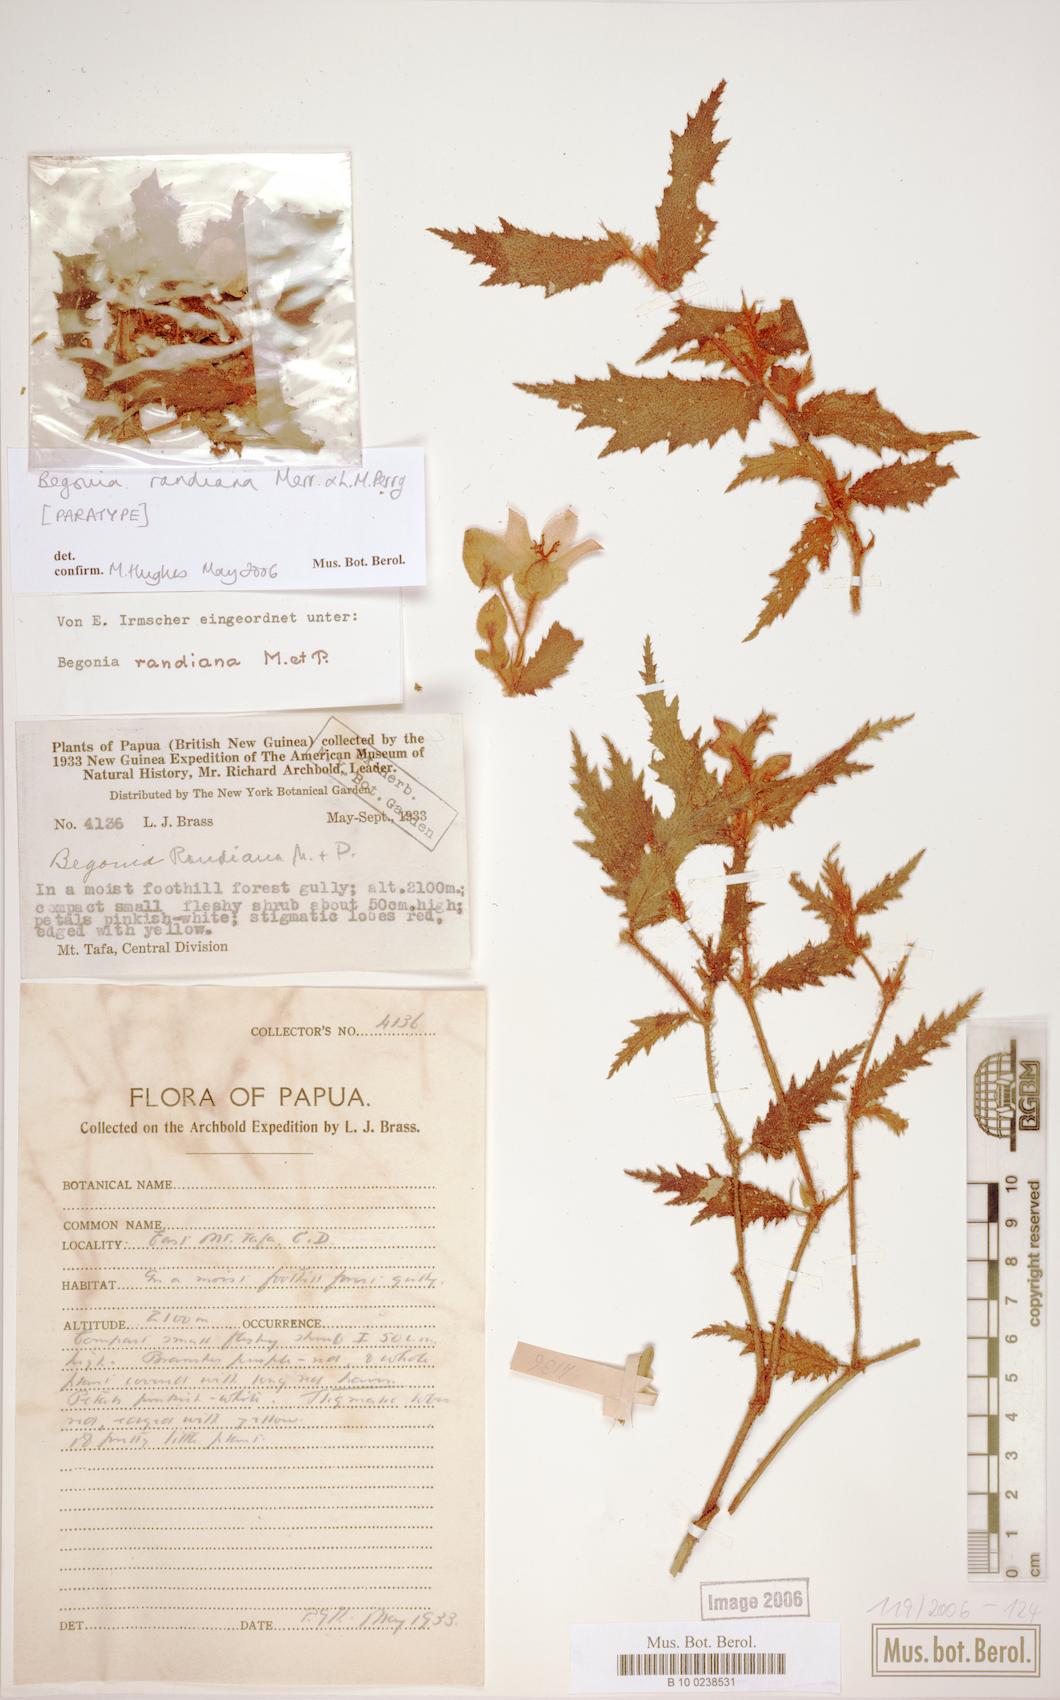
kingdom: Plantae
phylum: Tracheophyta
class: Magnoliopsida
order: Cucurbitales
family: Begoniaceae
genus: Begonia
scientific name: Begonia randiana
